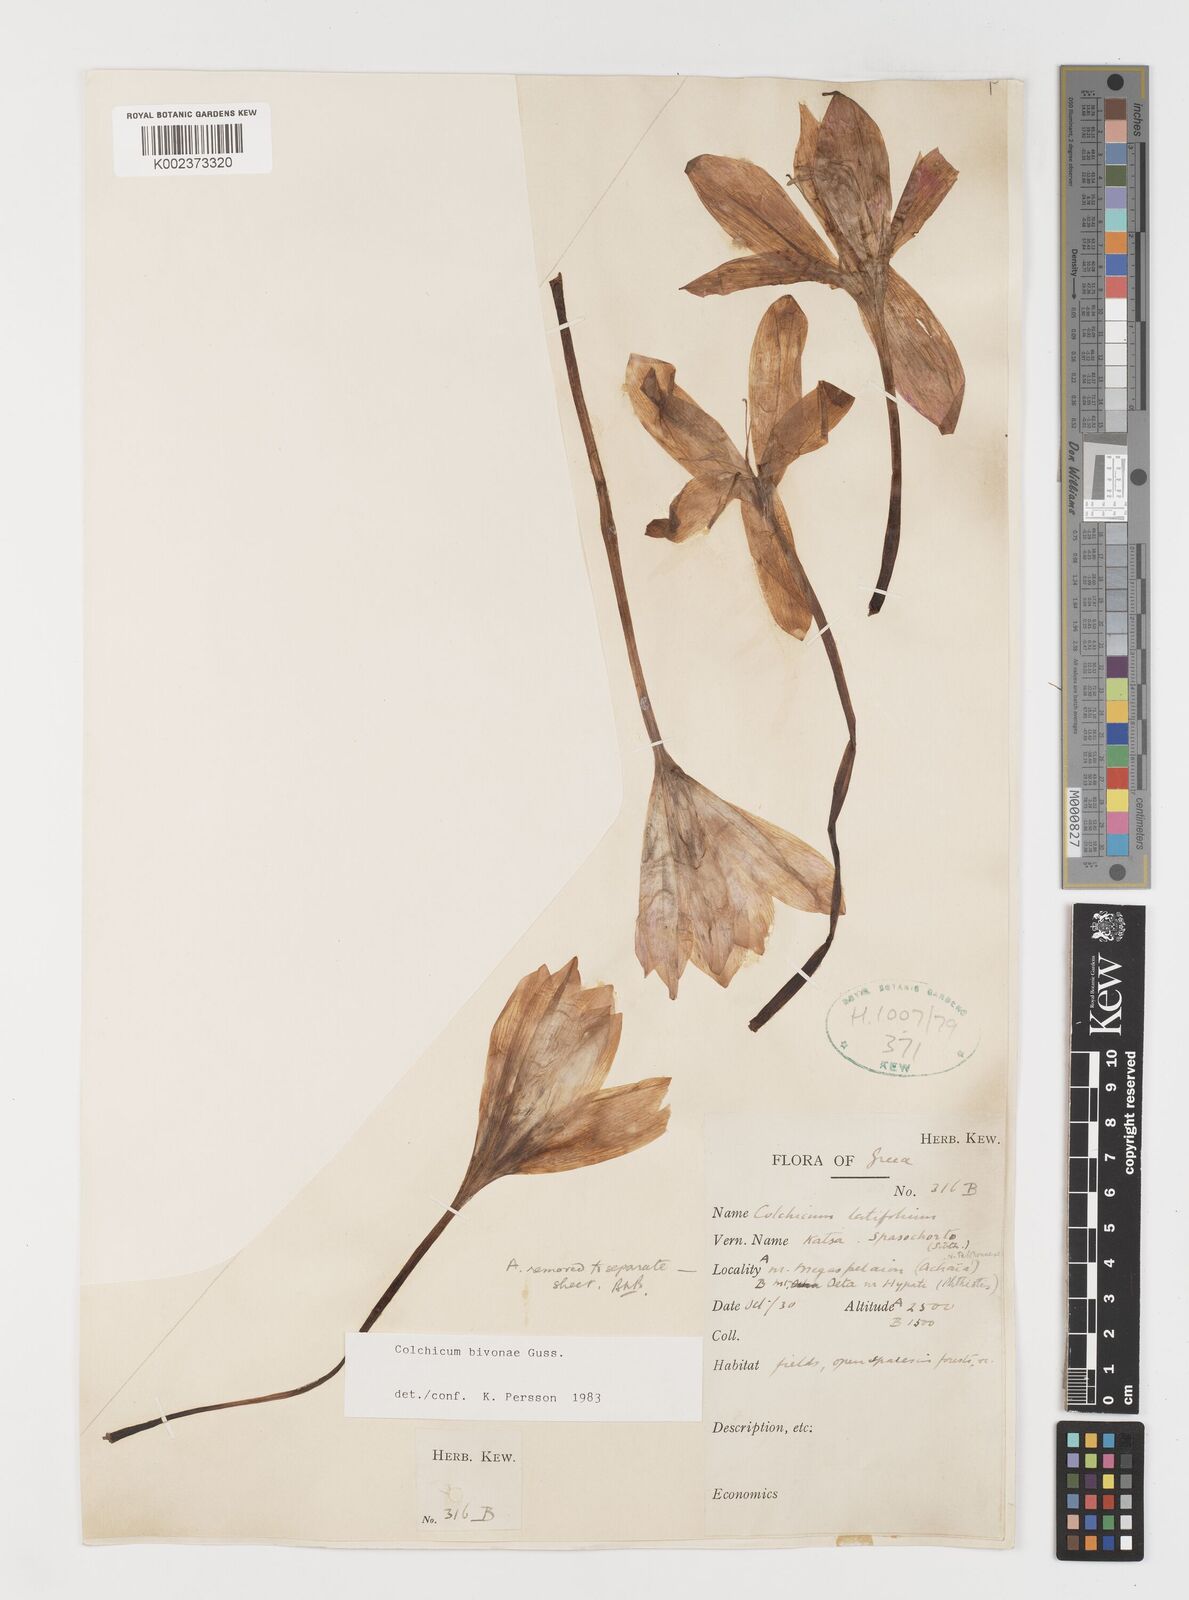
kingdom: Plantae
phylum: Tracheophyta
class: Liliopsida
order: Liliales
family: Colchicaceae
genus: Colchicum
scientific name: Colchicum bivonae
